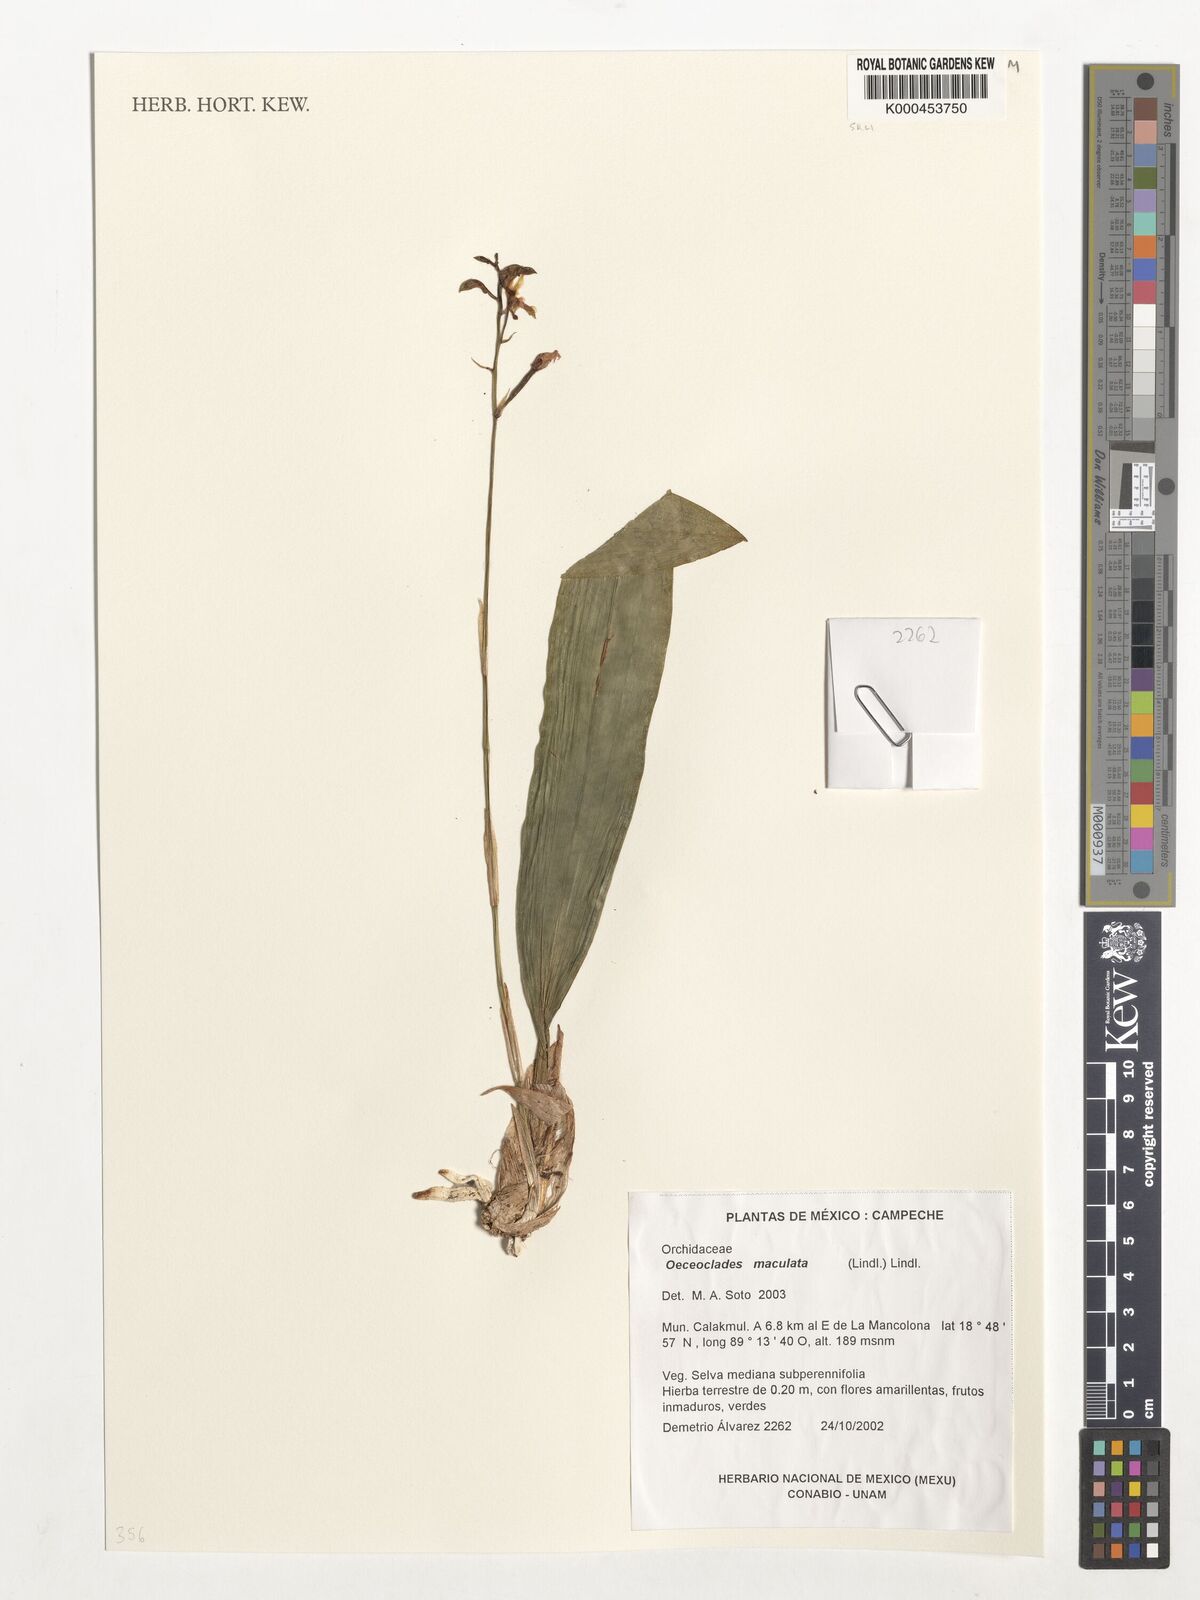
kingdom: Plantae
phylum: Tracheophyta
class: Liliopsida
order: Asparagales
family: Orchidaceae
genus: Eulophia
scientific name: Eulophia maculata
